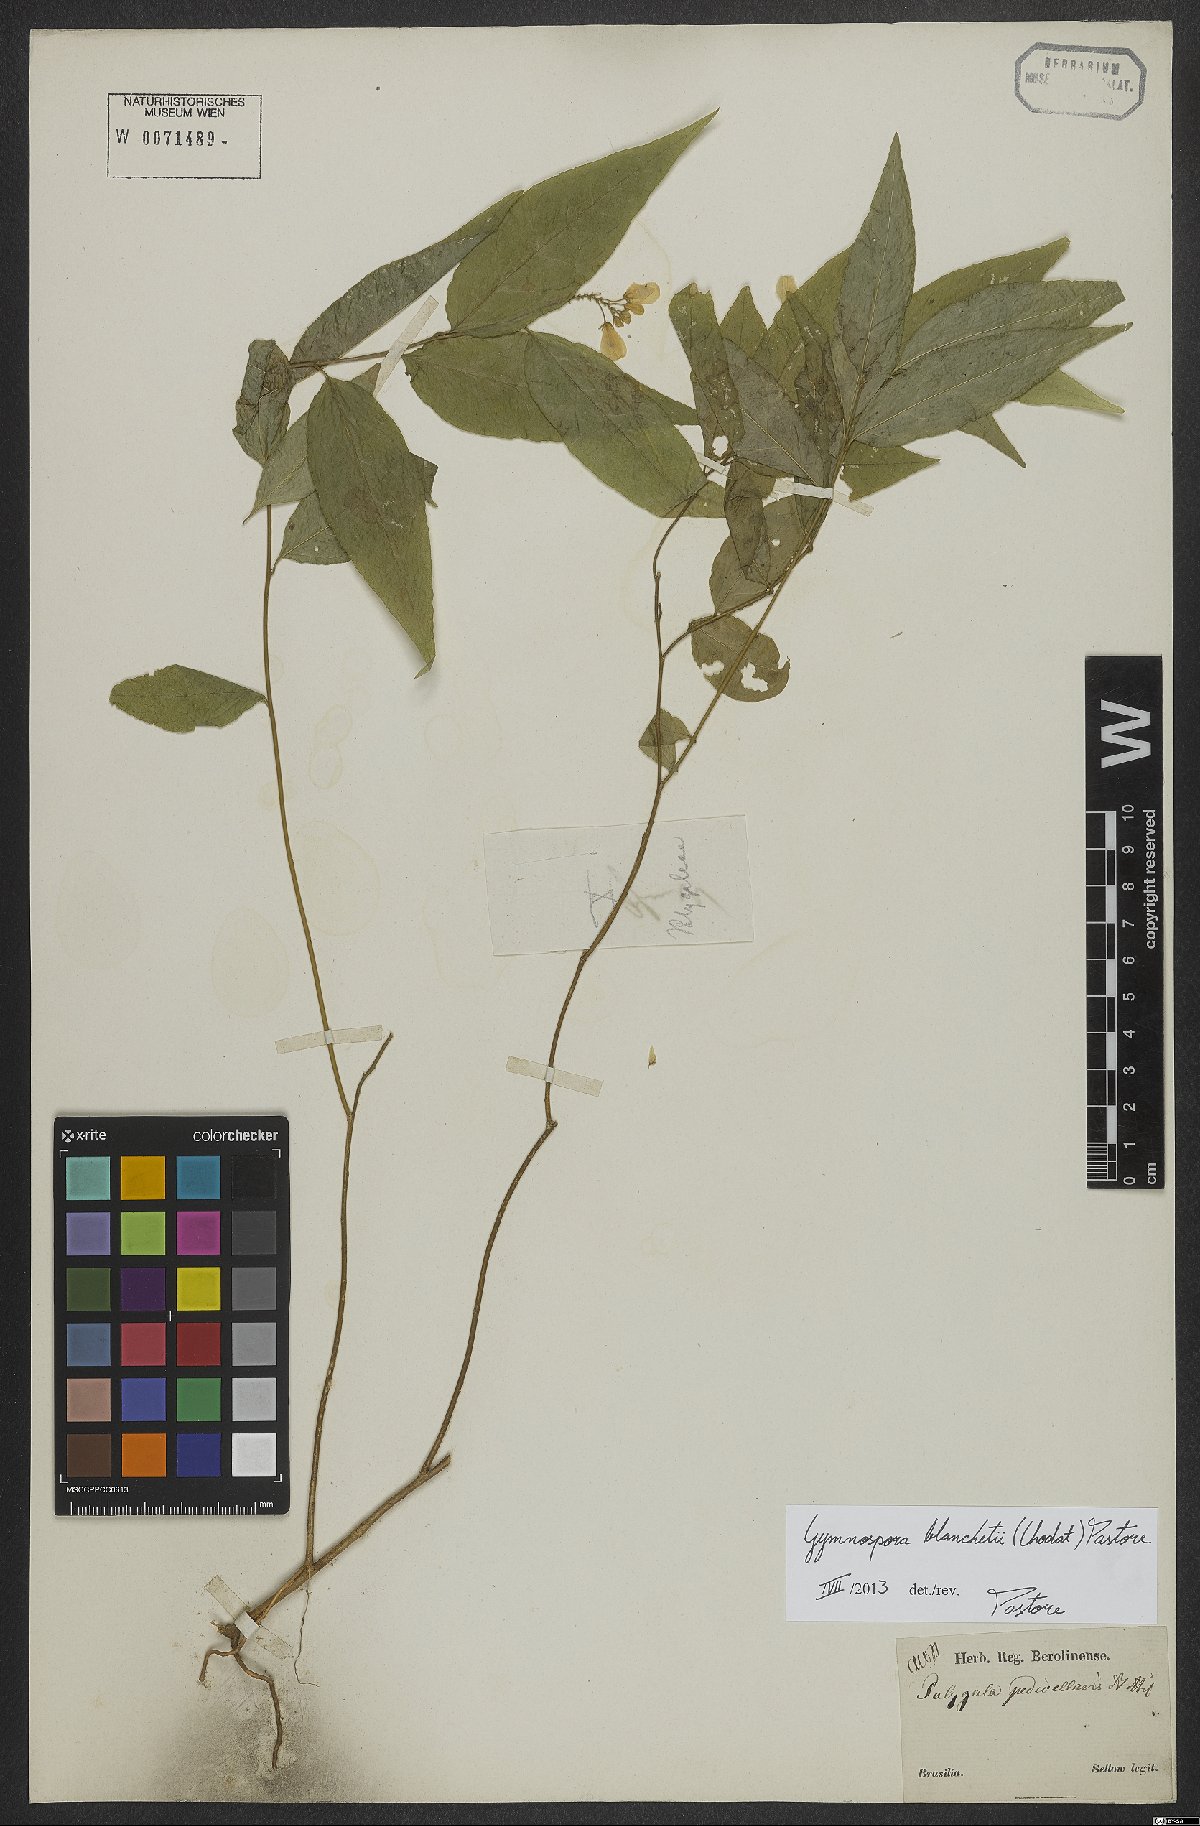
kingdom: Plantae
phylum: Tracheophyta
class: Magnoliopsida
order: Fabales
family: Polygalaceae
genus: Gymnospora
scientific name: Gymnospora blanchetii
